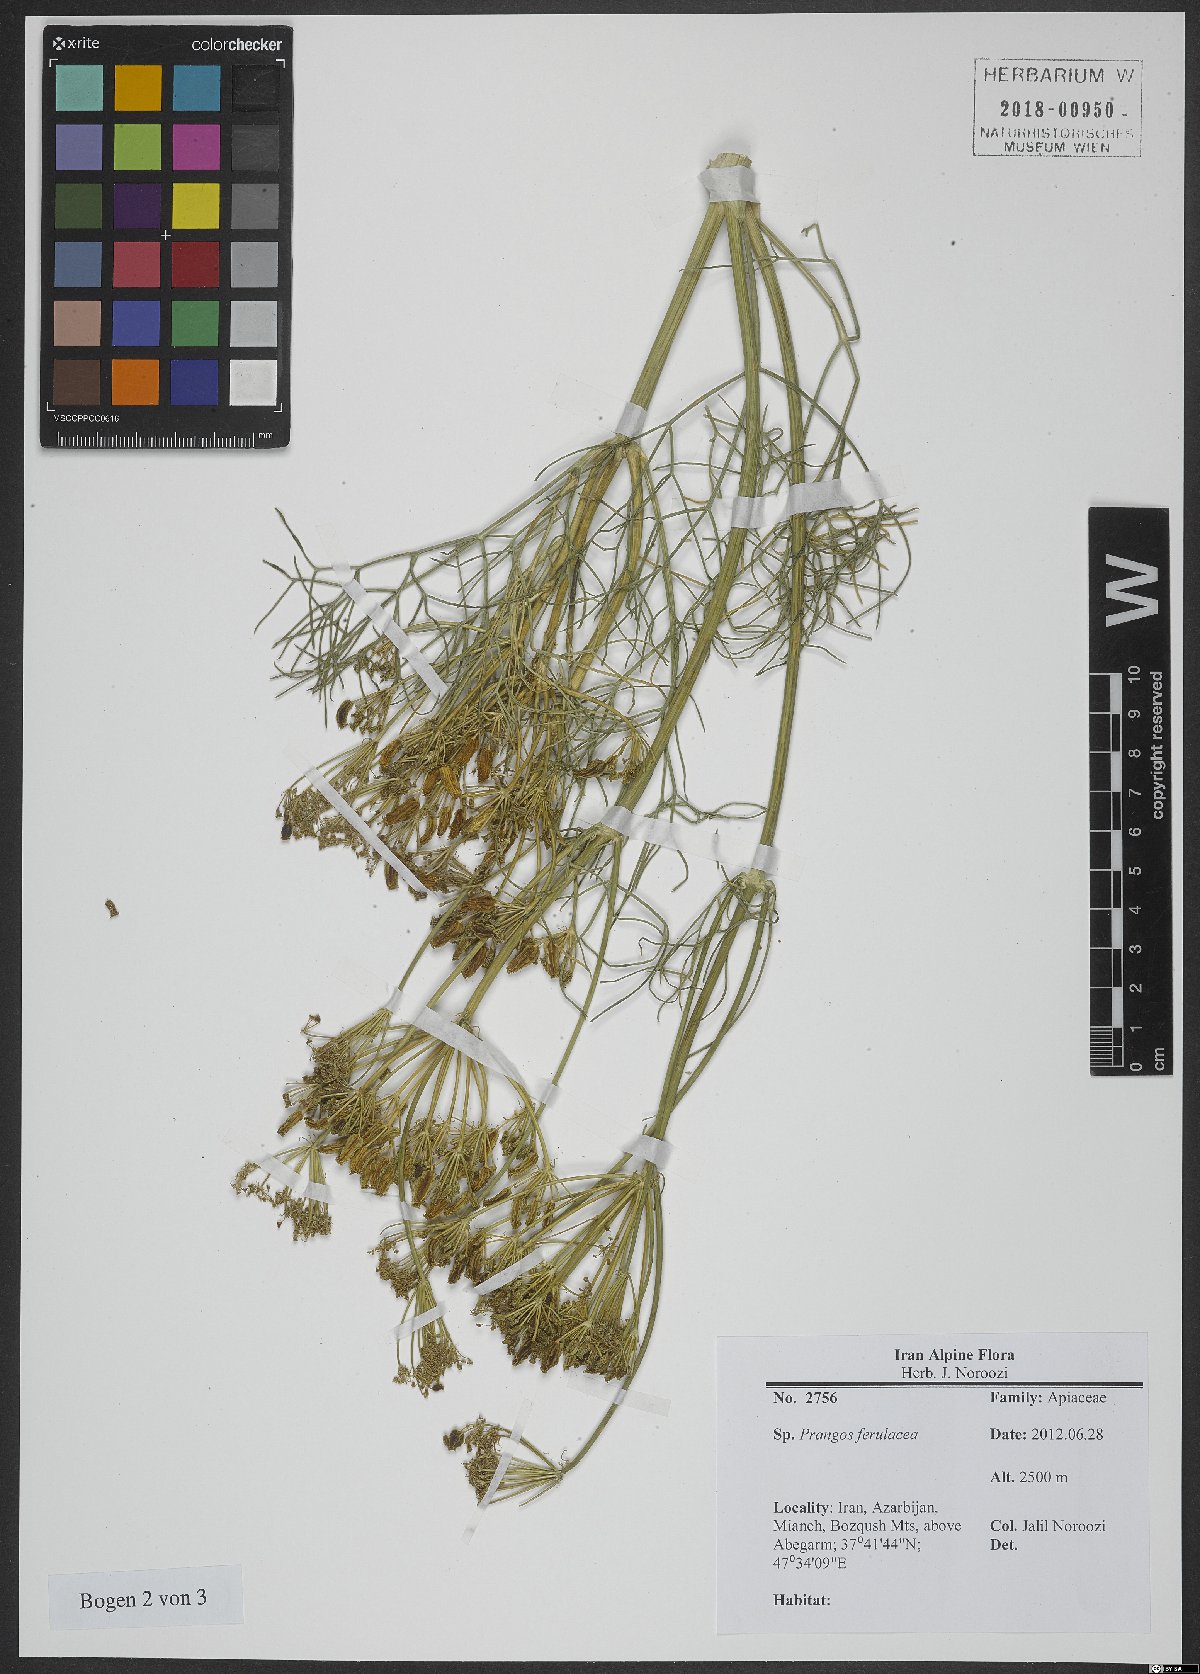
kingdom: Plantae
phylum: Tracheophyta
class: Magnoliopsida
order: Apiales
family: Apiaceae
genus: Prangos
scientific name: Prangos ferulacea
